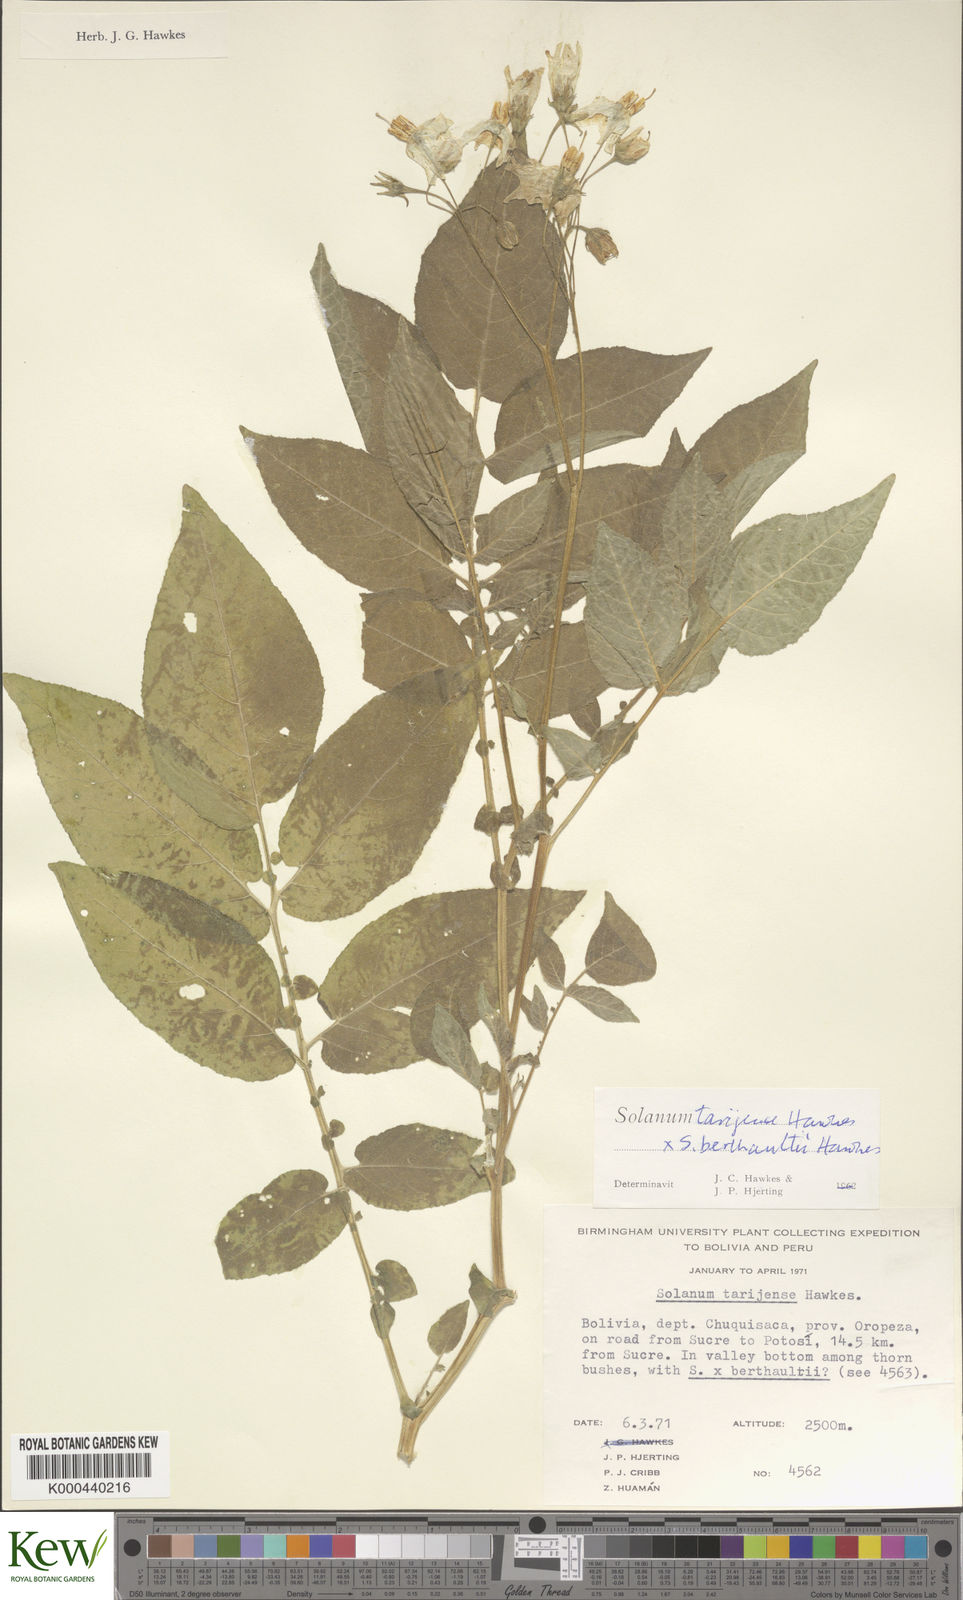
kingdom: Plantae
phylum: Tracheophyta
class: Magnoliopsida
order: Solanales
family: Solanaceae
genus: Solanum
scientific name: Solanum tarijense
